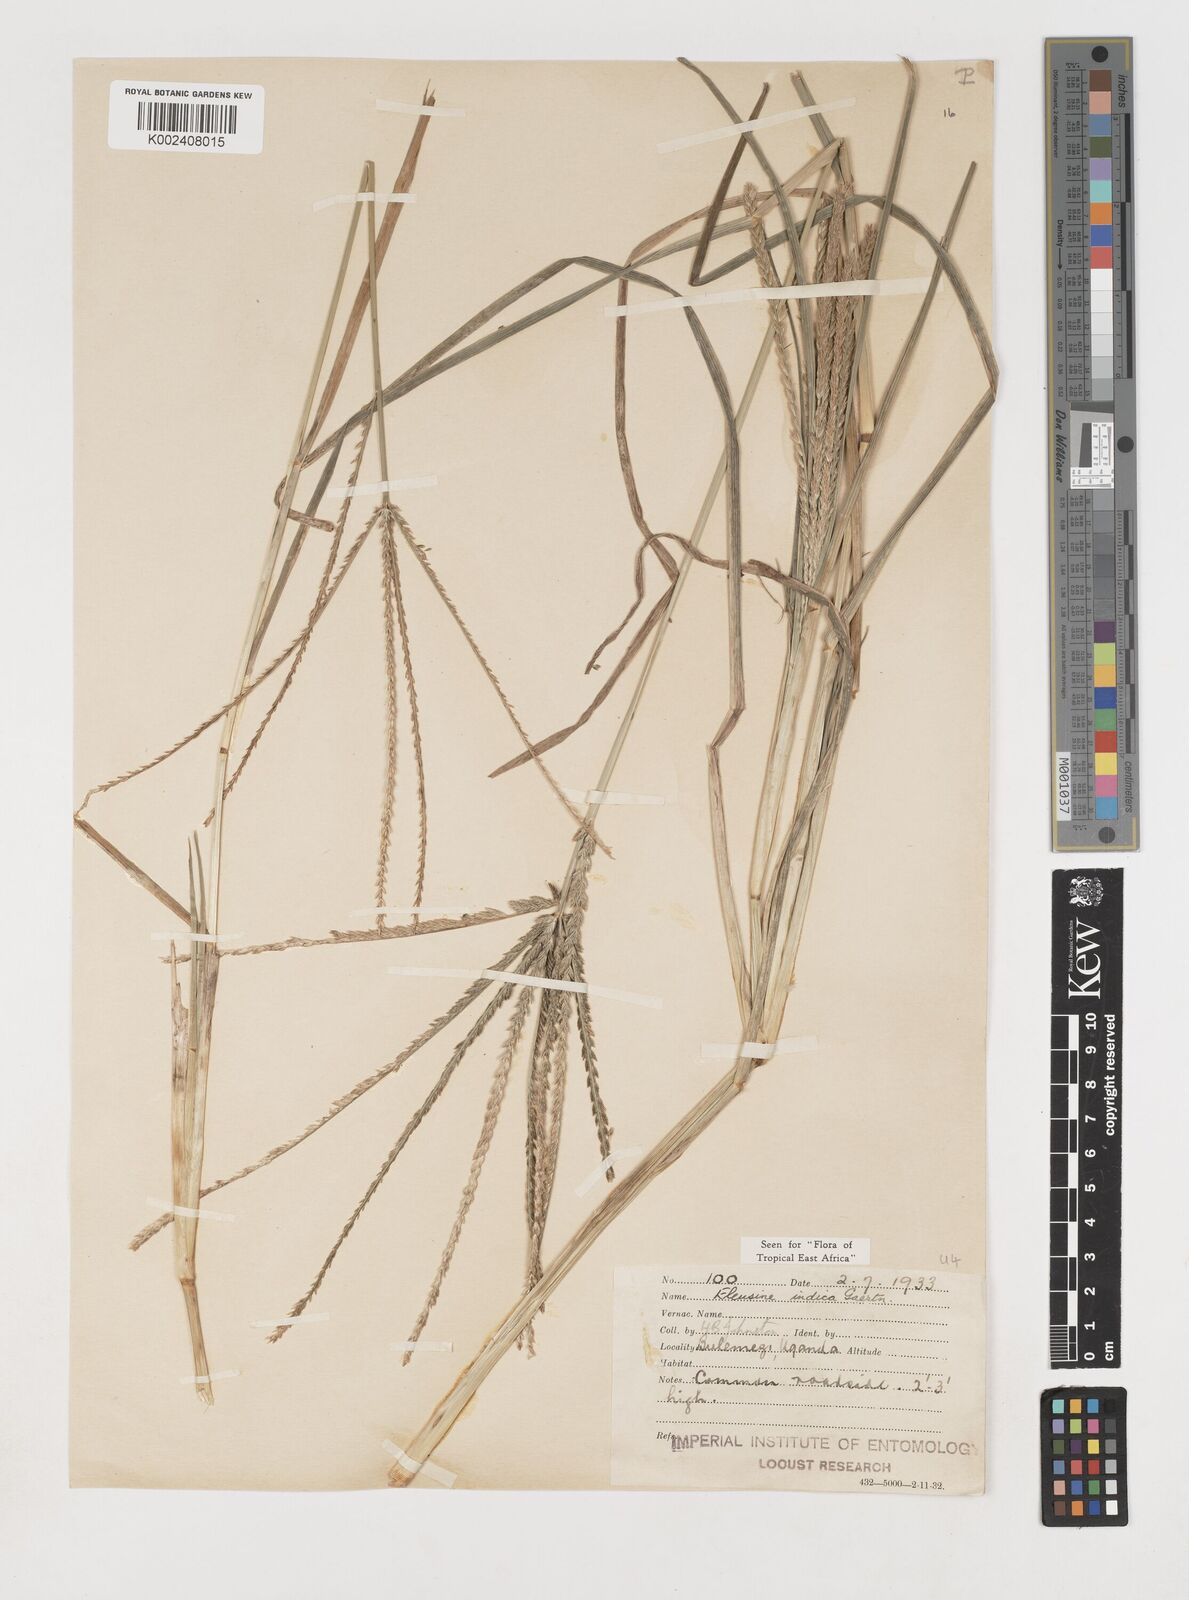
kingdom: Plantae
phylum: Tracheophyta
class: Liliopsida
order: Poales
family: Poaceae
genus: Eleusine
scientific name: Eleusine indica
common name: Yard-grass
